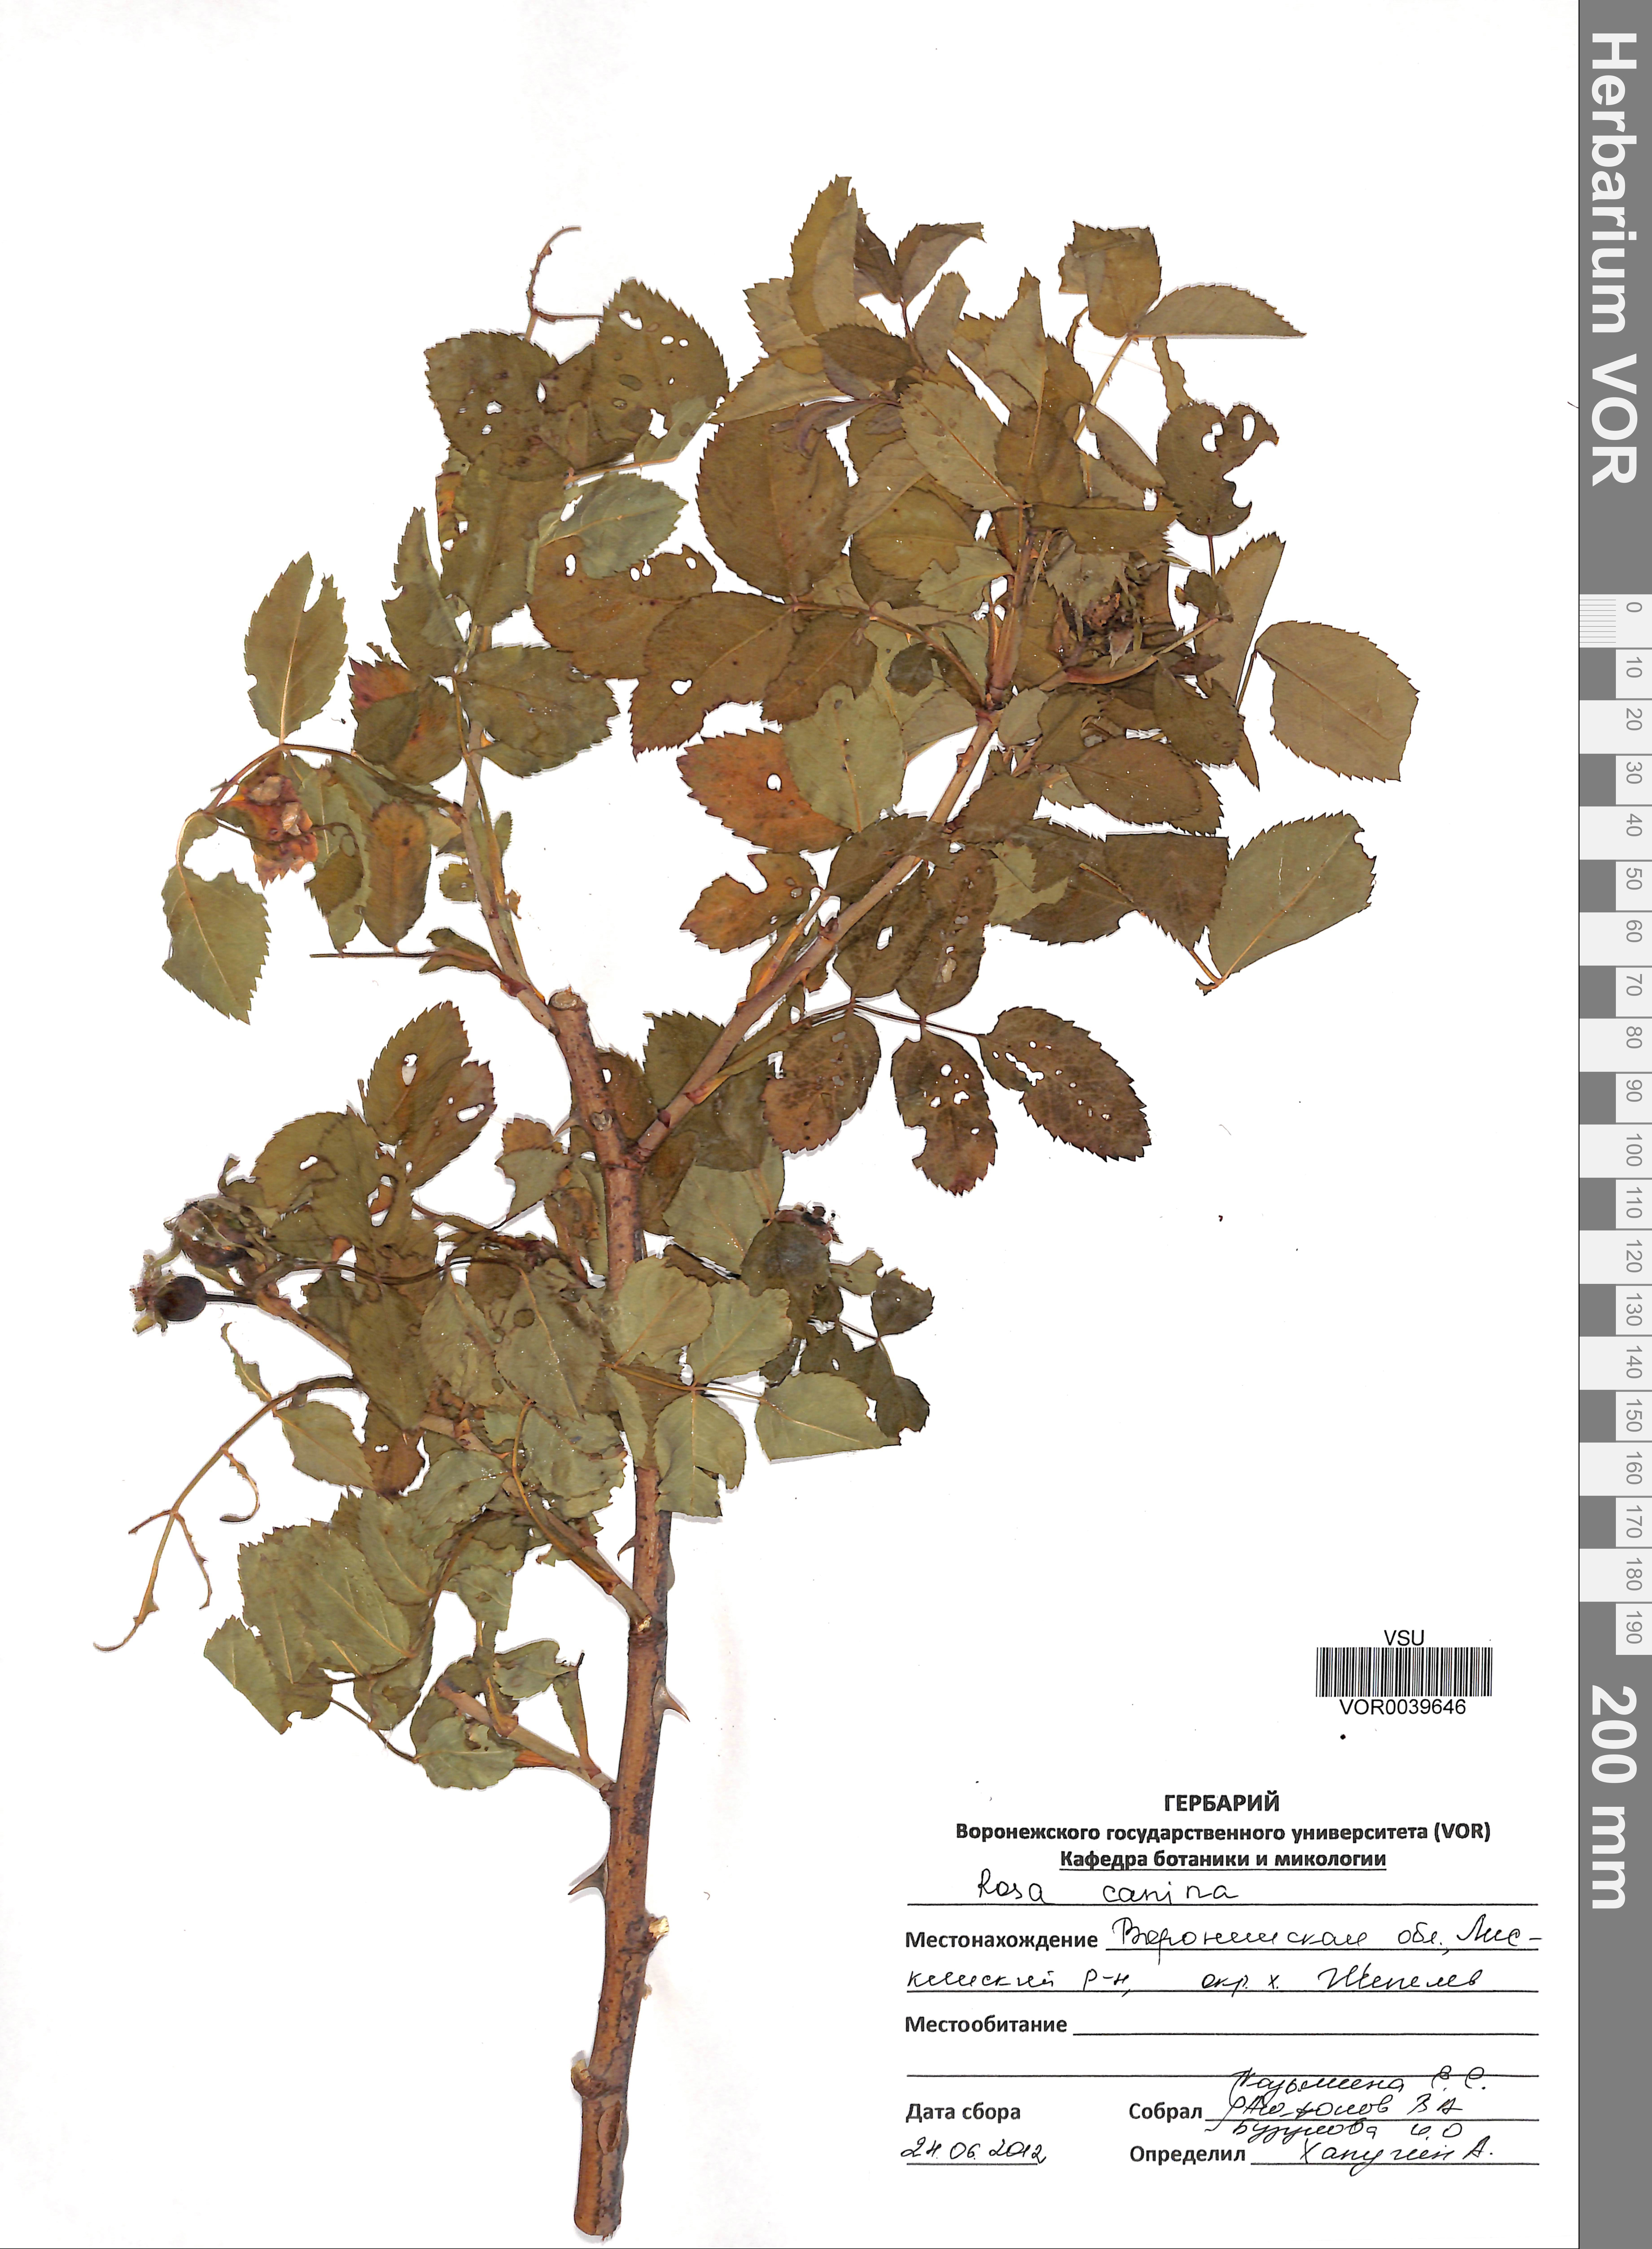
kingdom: Plantae
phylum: Tracheophyta
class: Magnoliopsida
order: Rosales
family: Rosaceae
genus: Rosa
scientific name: Rosa canina
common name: Dog rose
